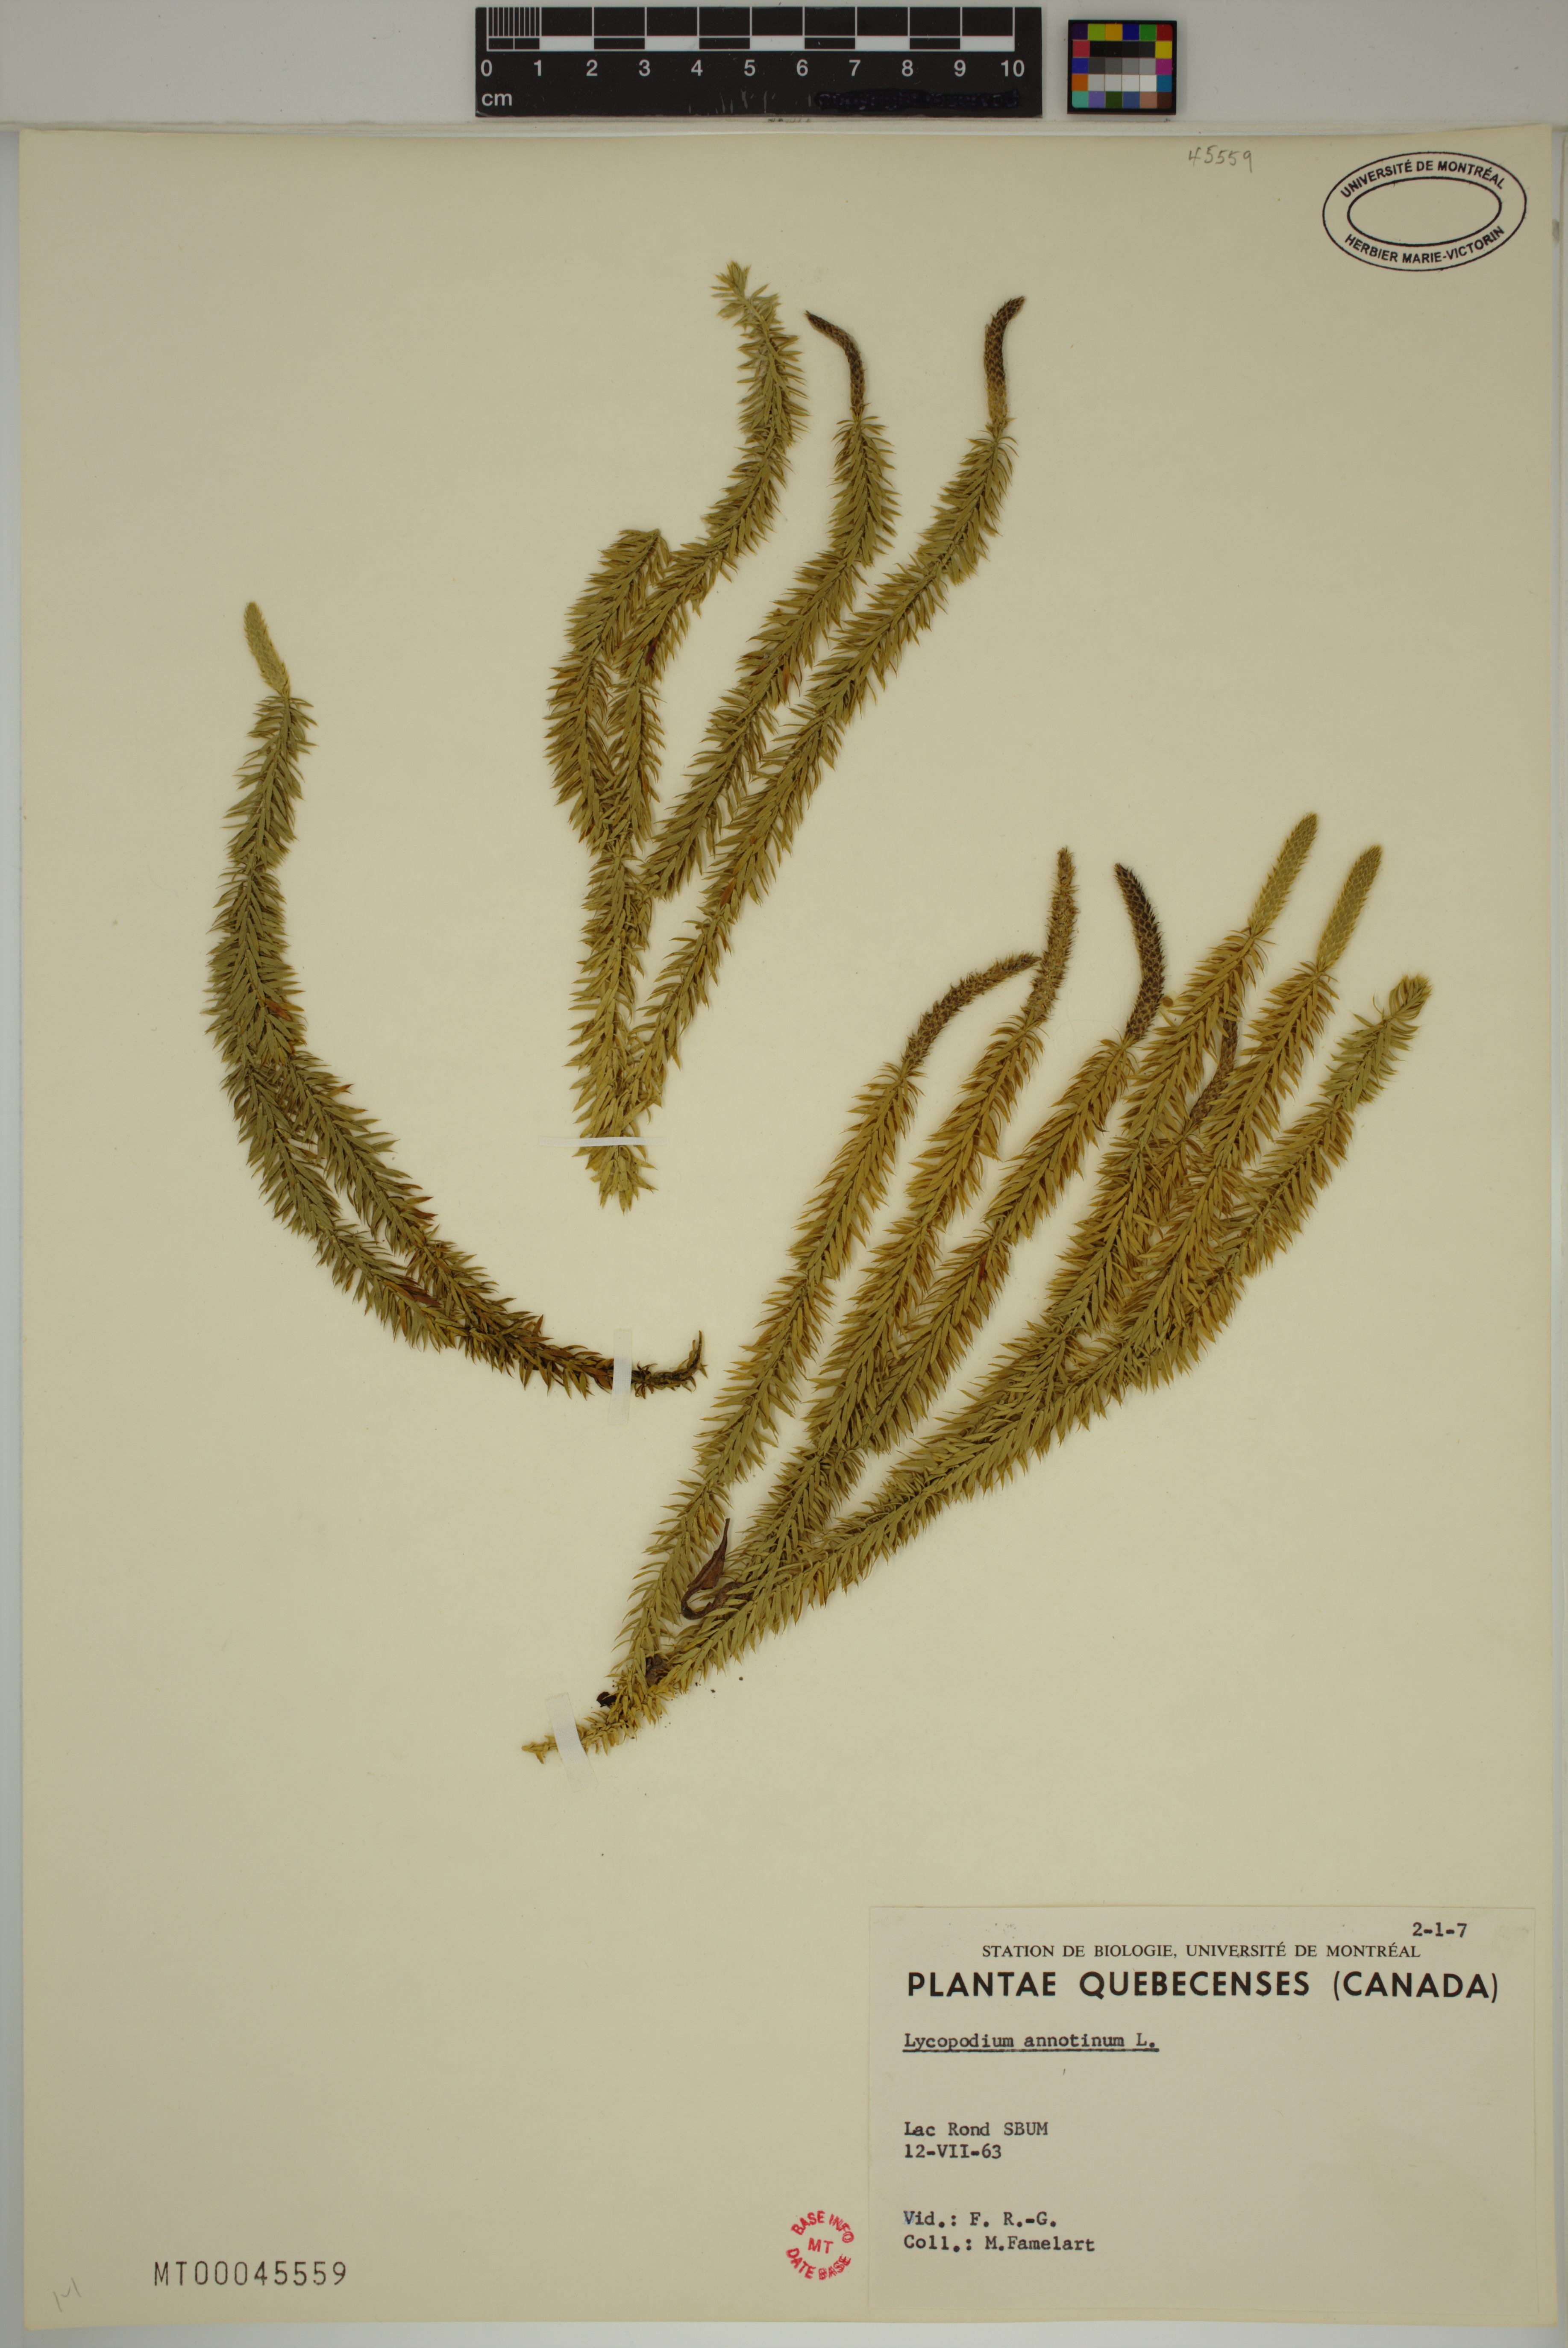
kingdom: Plantae
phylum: Tracheophyta
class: Lycopodiopsida
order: Lycopodiales
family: Lycopodiaceae
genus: Spinulum
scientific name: Spinulum annotinum
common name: Interrupted club-moss
